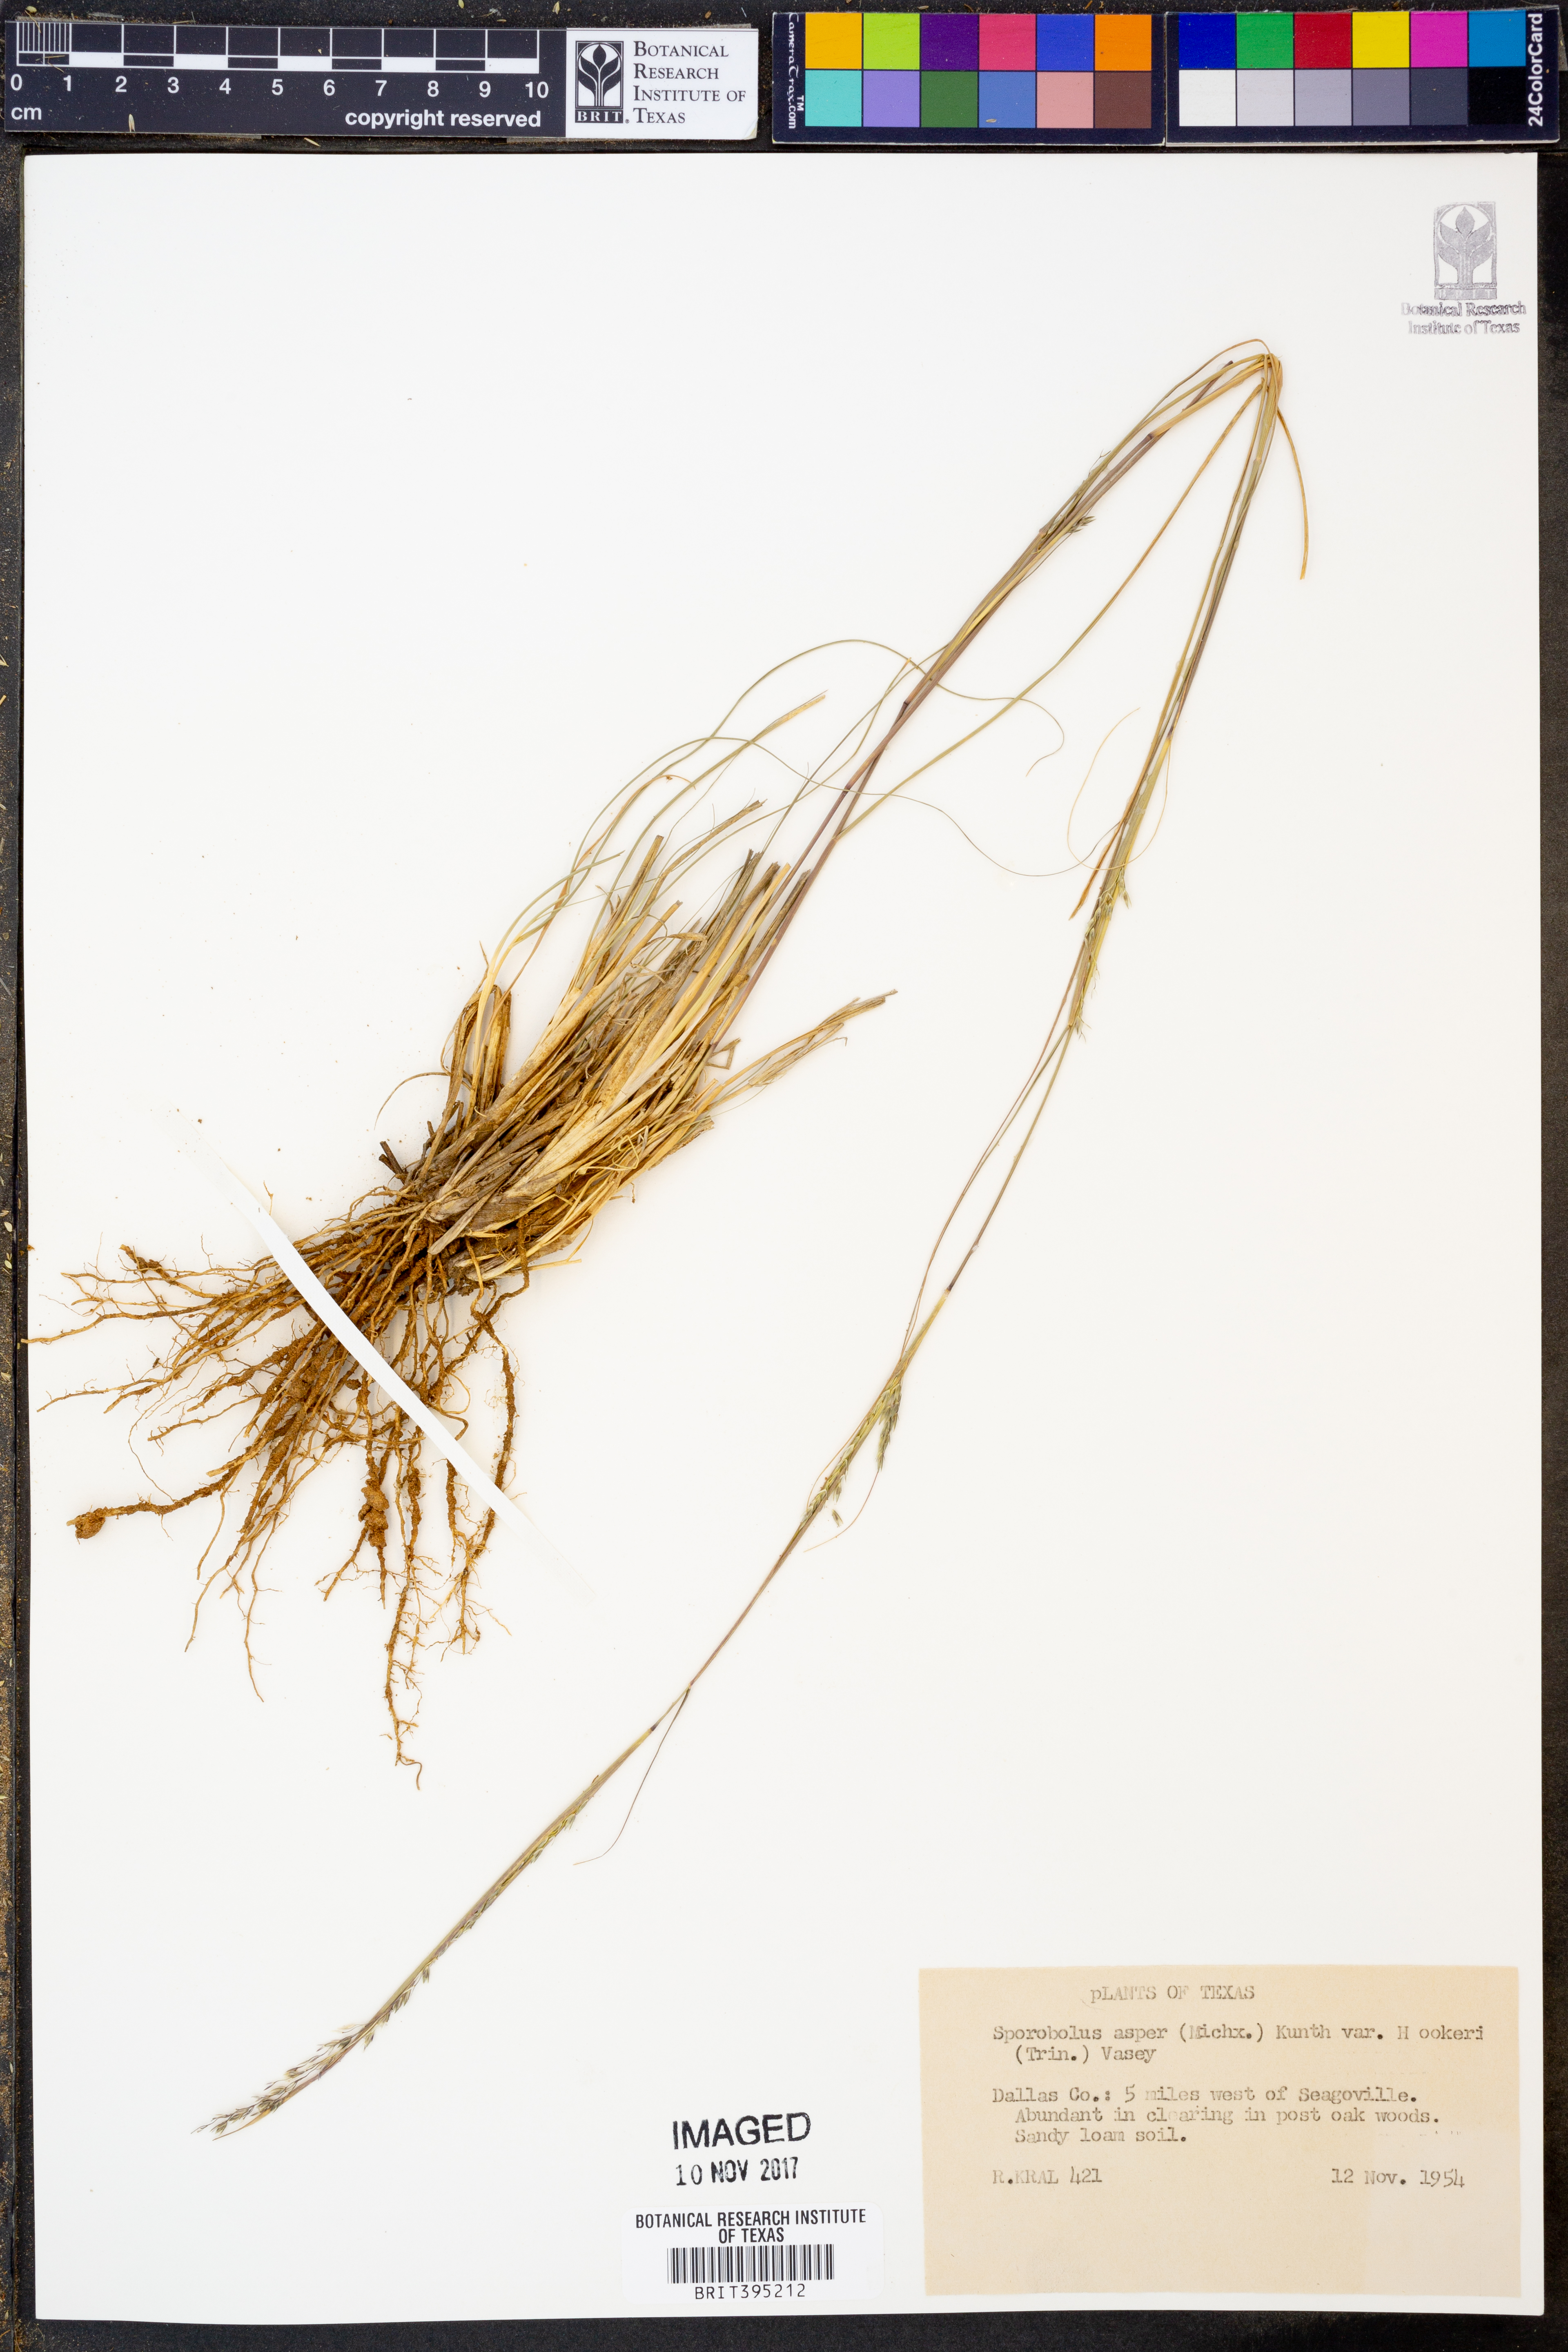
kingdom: Plantae
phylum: Tracheophyta
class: Liliopsida
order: Poales
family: Poaceae
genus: Sporobolus
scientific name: Sporobolus compositus
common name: Rough dropseed
